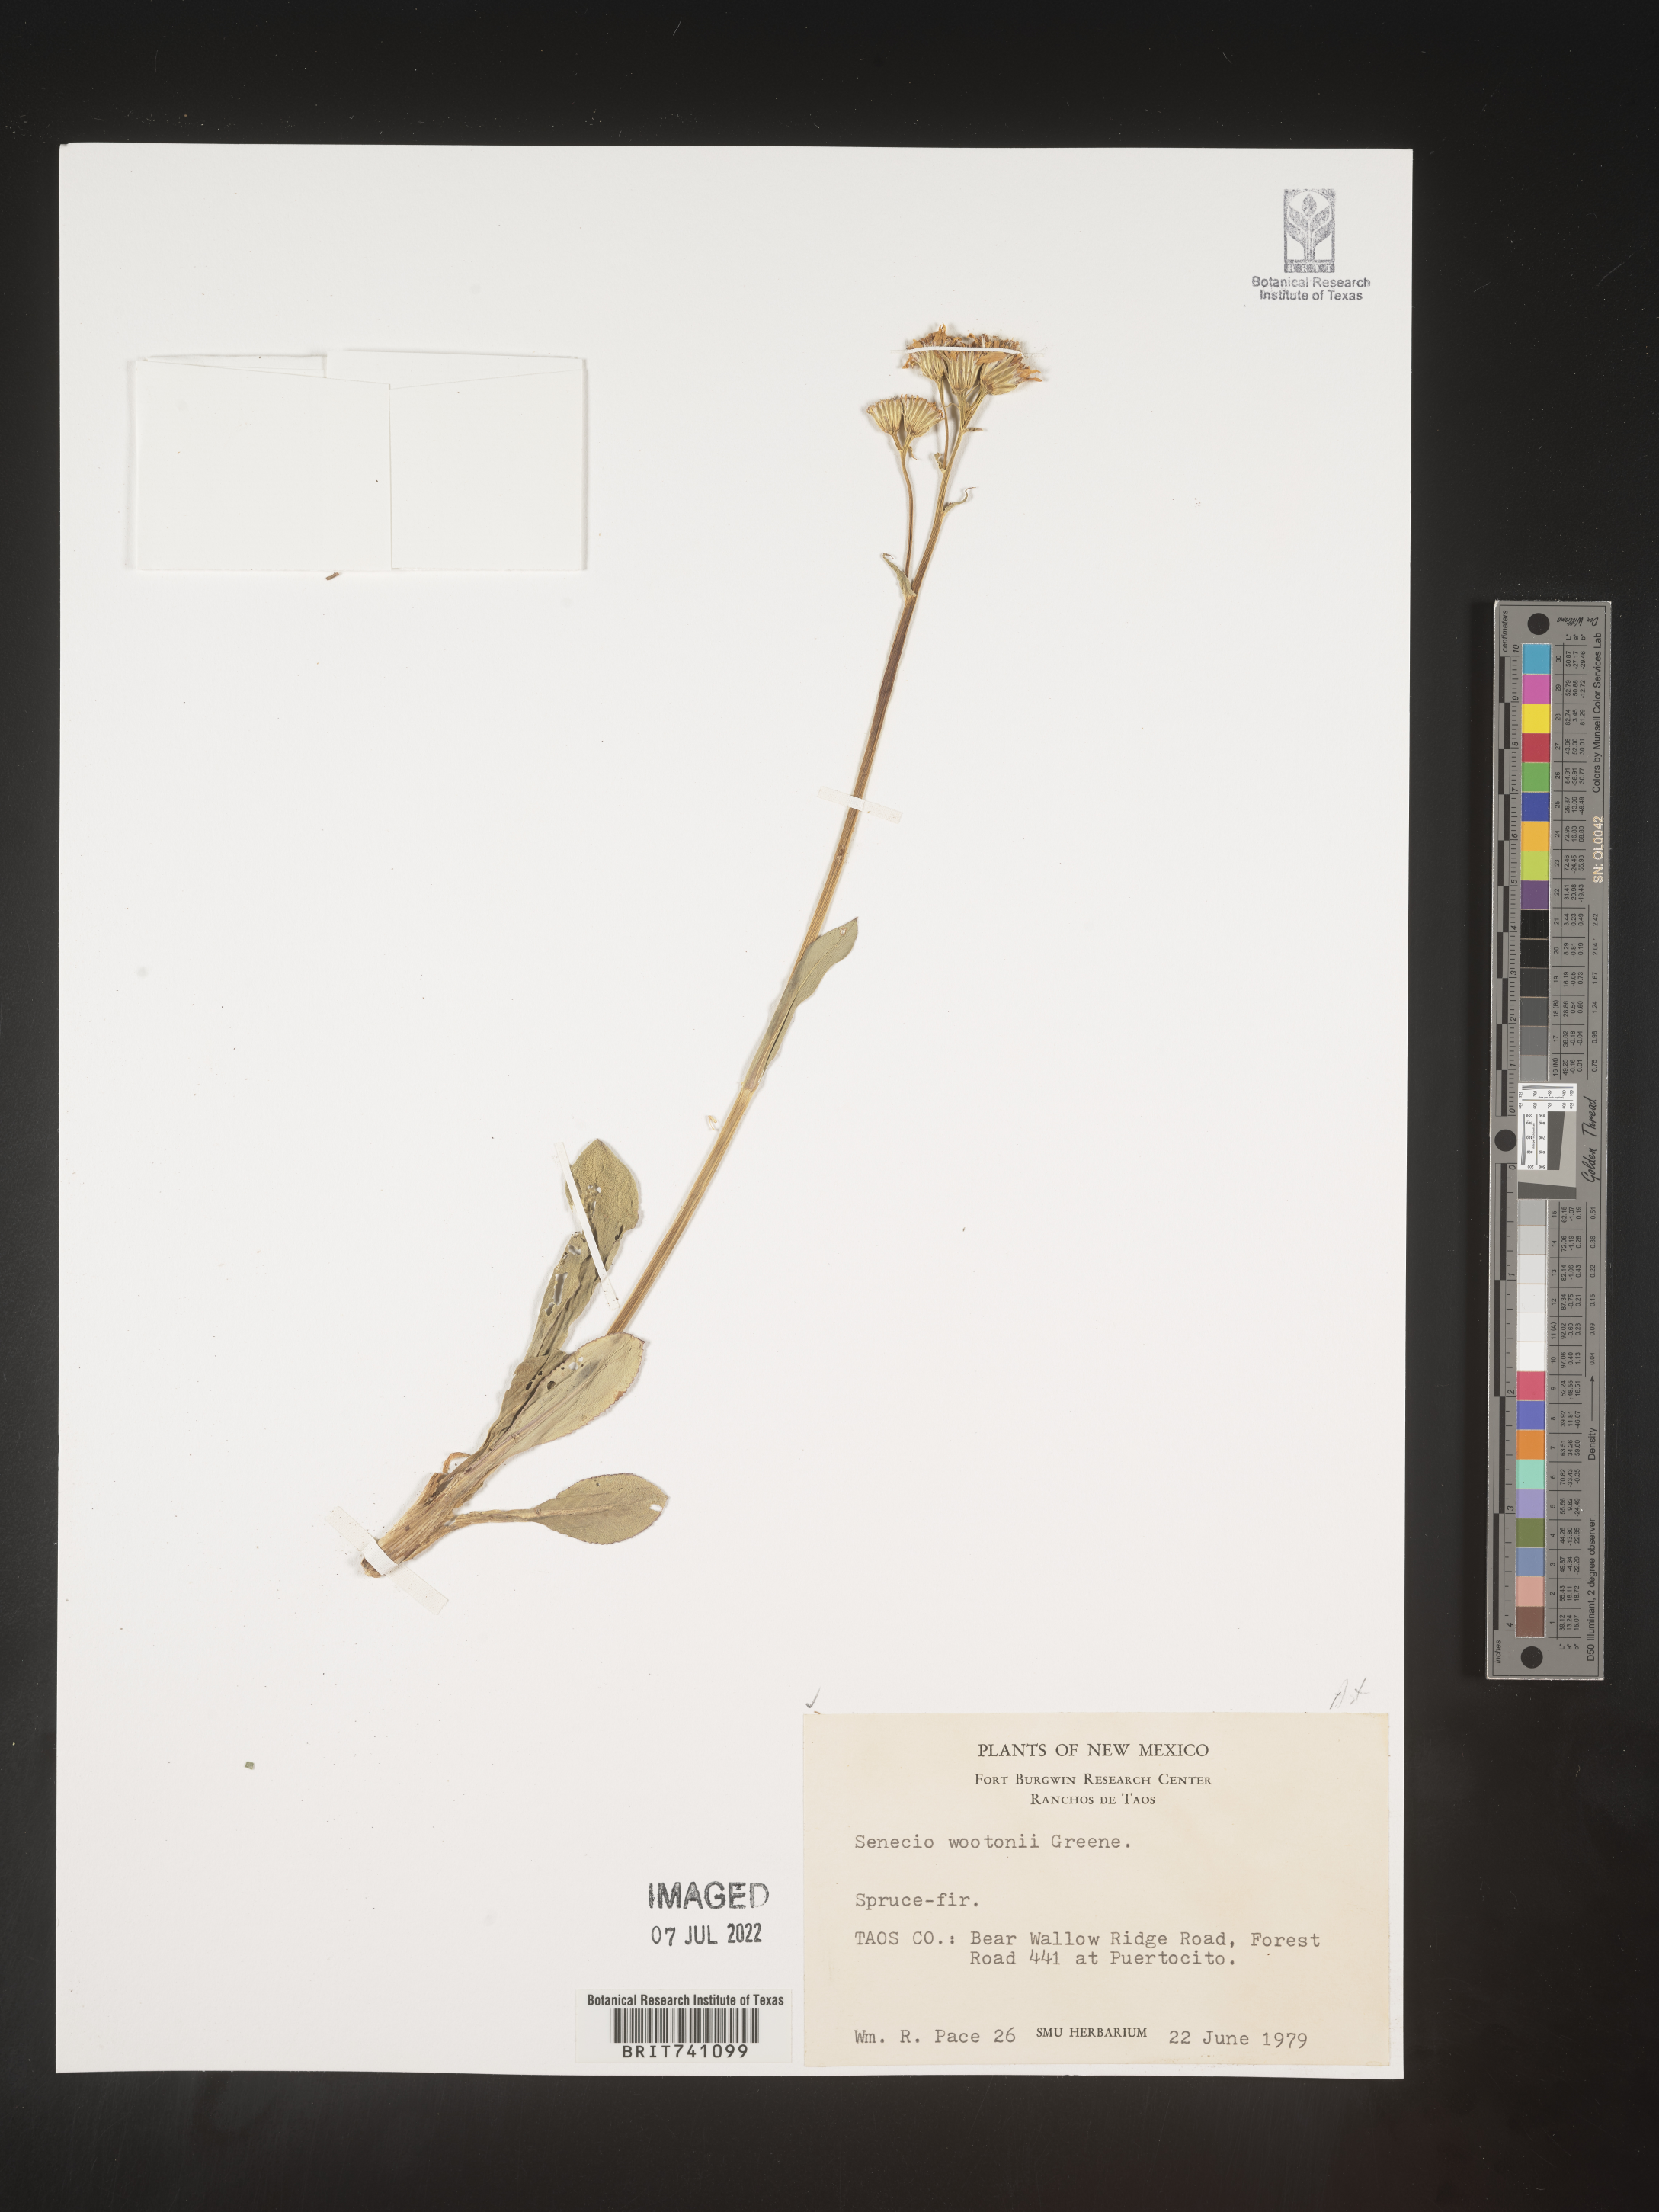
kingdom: Plantae
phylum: Tracheophyta
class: Magnoliopsida
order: Asterales
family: Asteraceae
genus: Senecio
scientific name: Senecio wootonii
